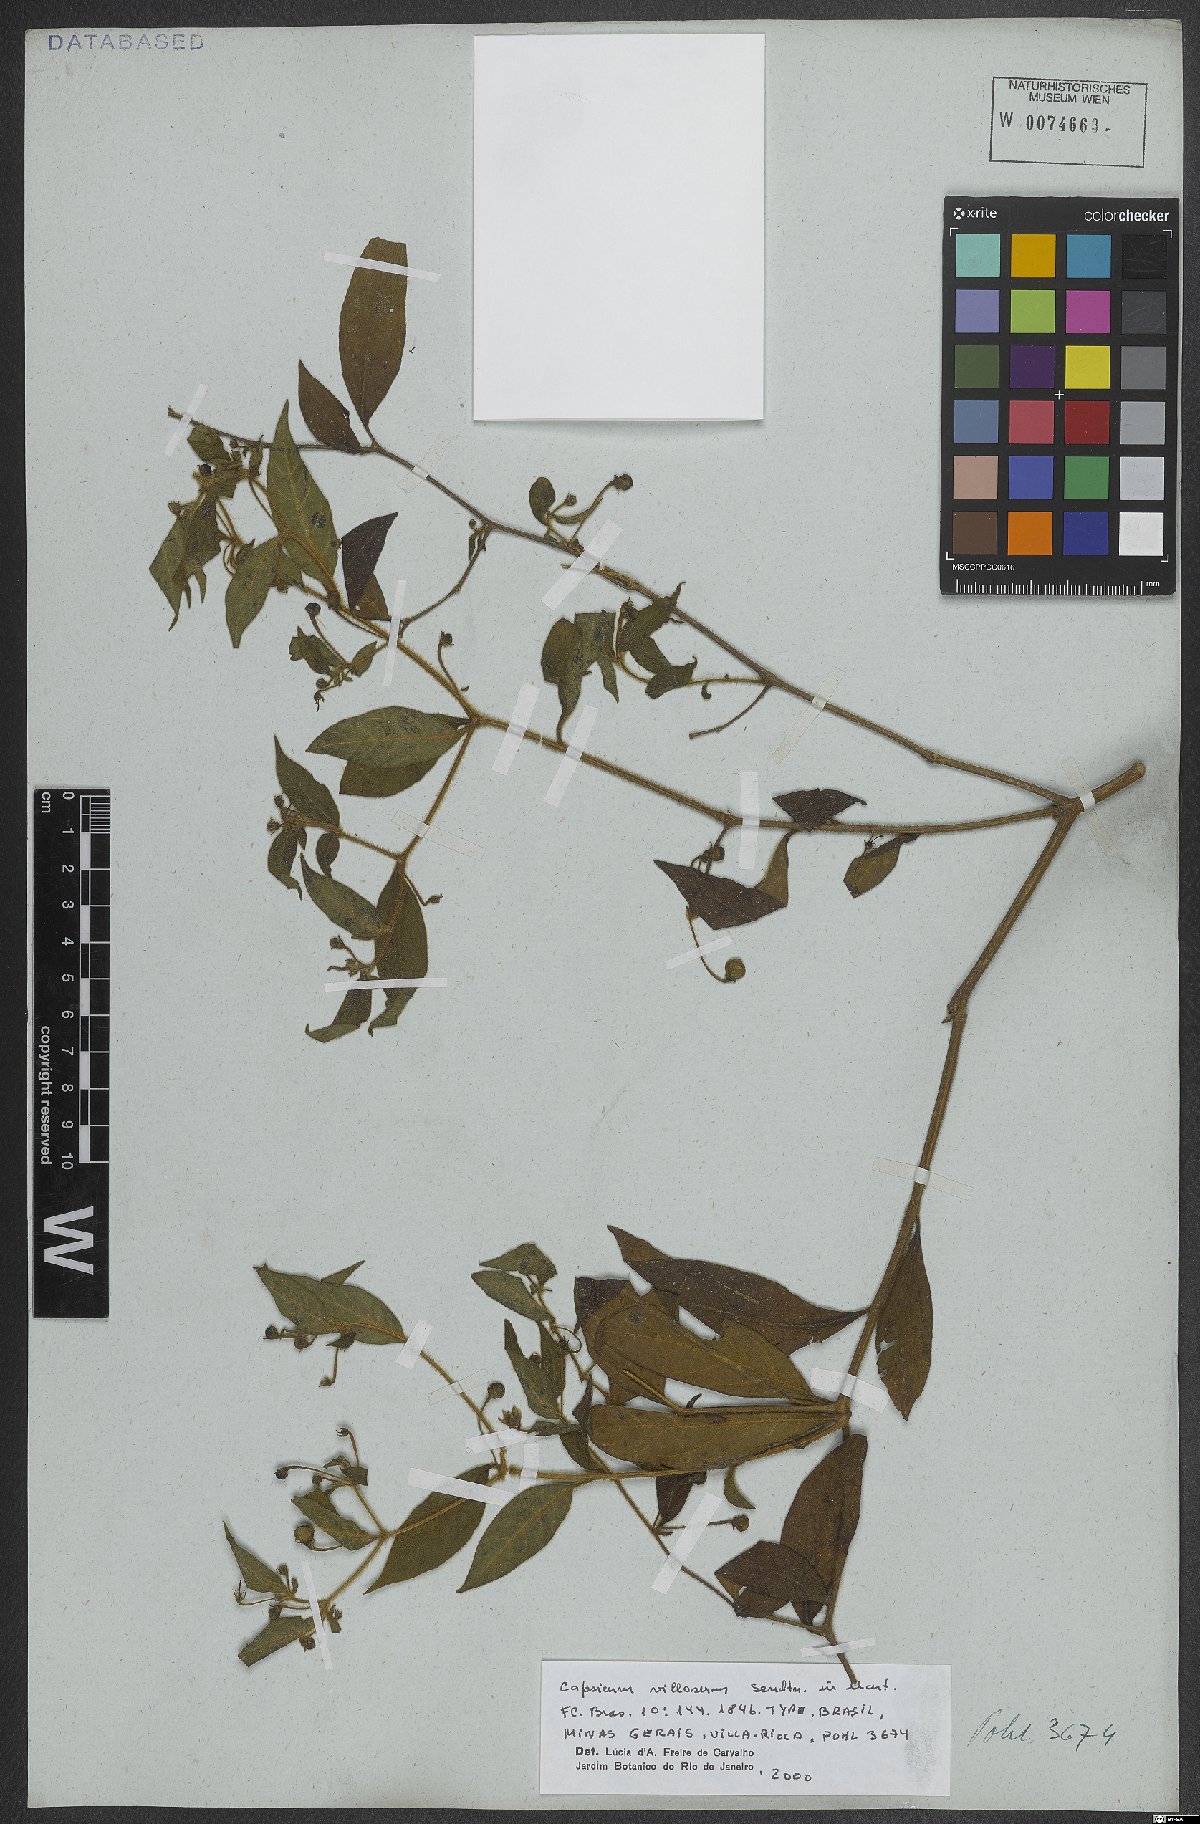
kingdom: Plantae
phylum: Tracheophyta
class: Magnoliopsida
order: Solanales
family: Solanaceae
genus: Capsicum
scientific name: Capsicum villosum
